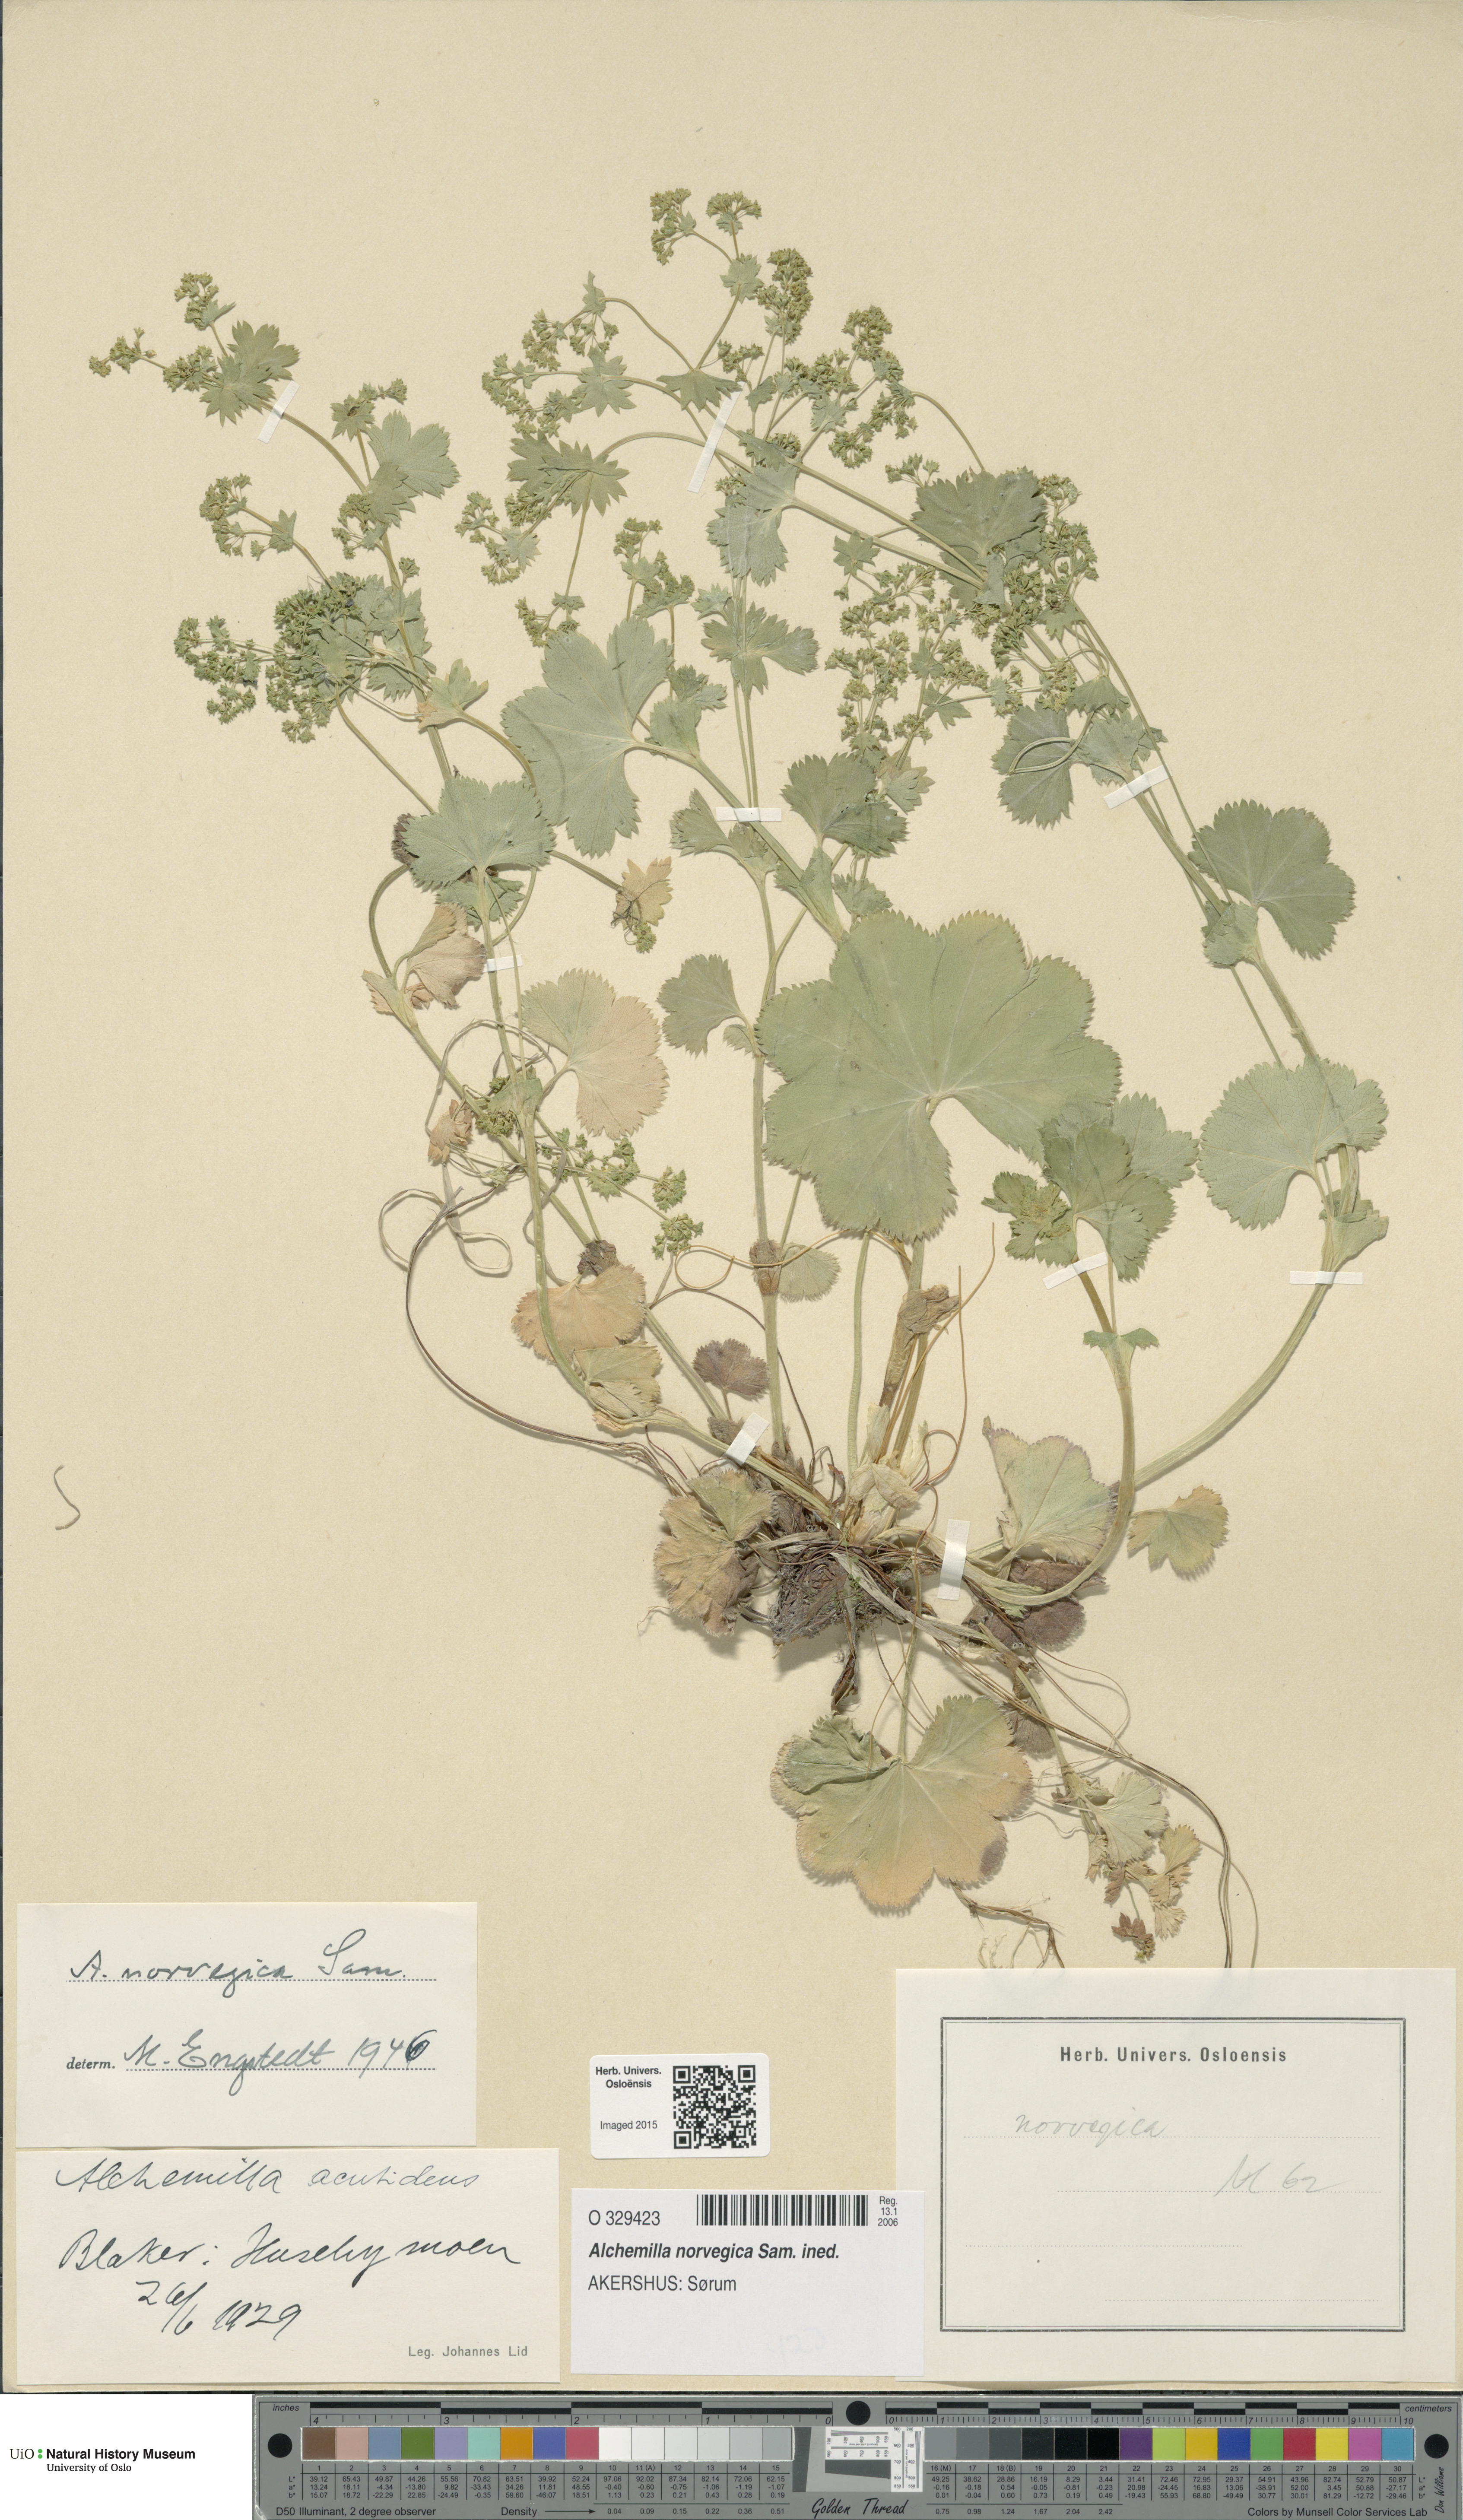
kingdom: Plantae
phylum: Tracheophyta
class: Magnoliopsida
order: Rosales
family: Rosaceae
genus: Alchemilla
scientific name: Alchemilla norvegica
